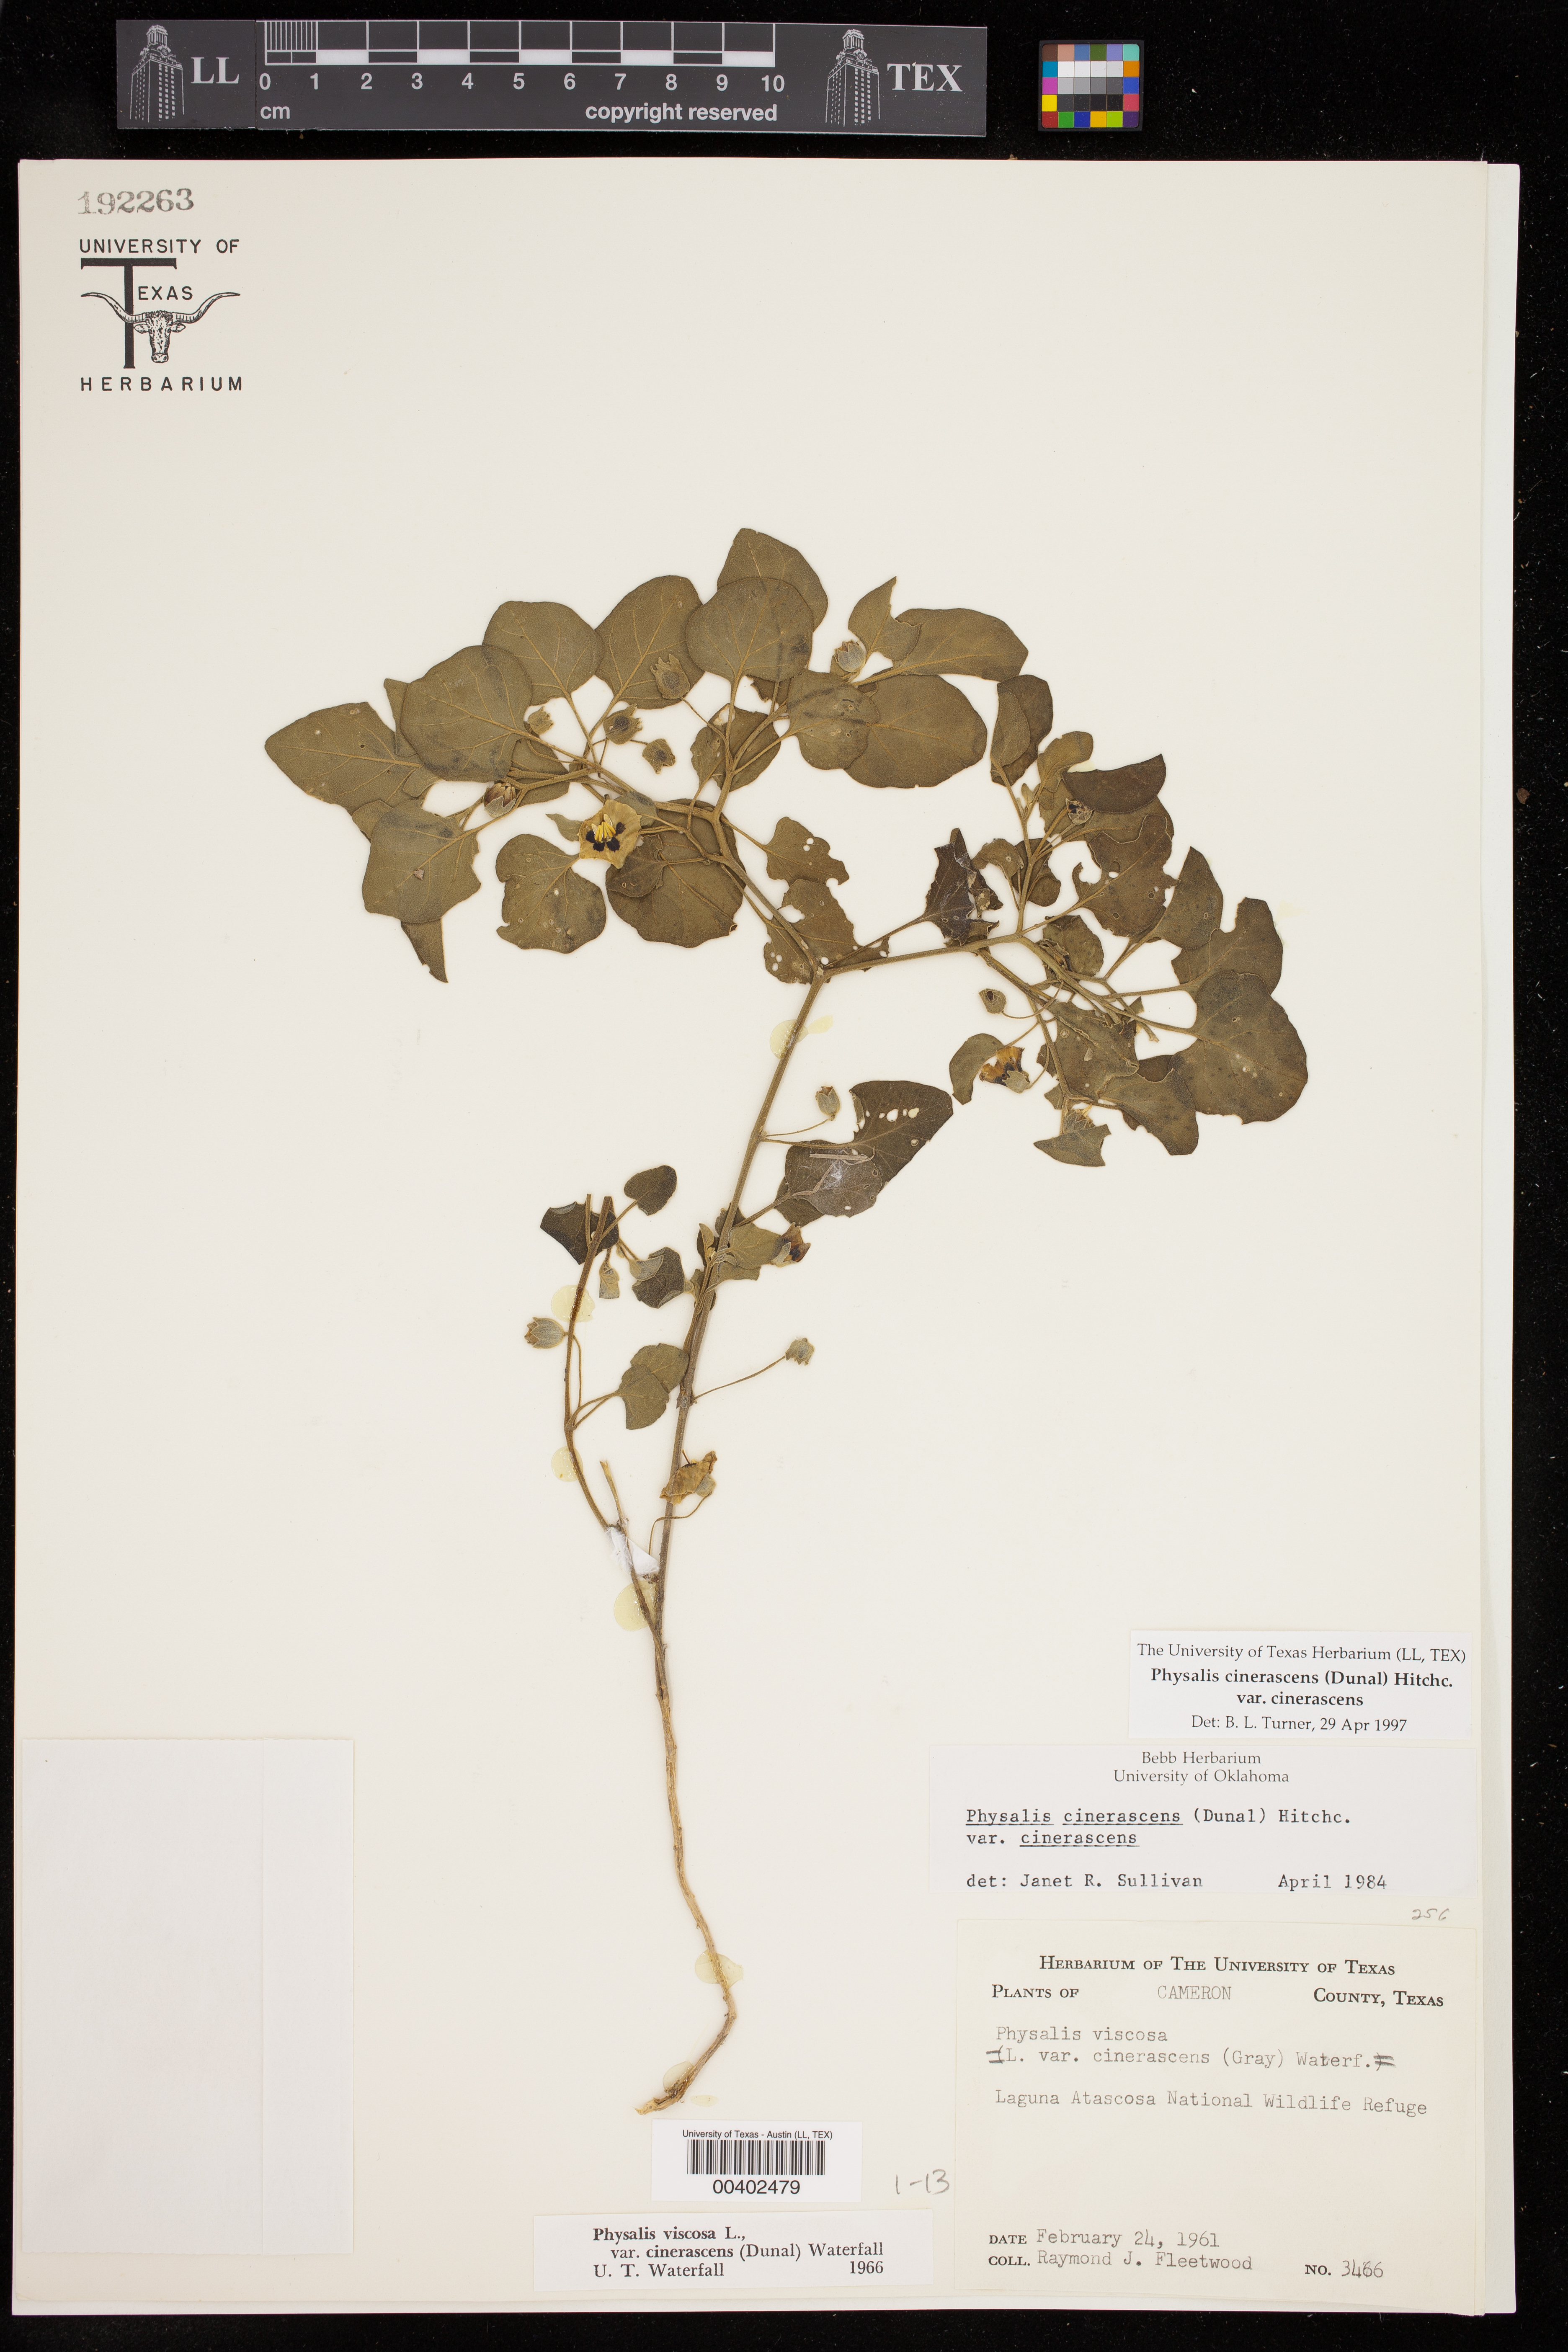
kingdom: Plantae
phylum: Tracheophyta
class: Magnoliopsida
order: Solanales
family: Solanaceae
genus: Physalis
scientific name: Physalis cinerascens
